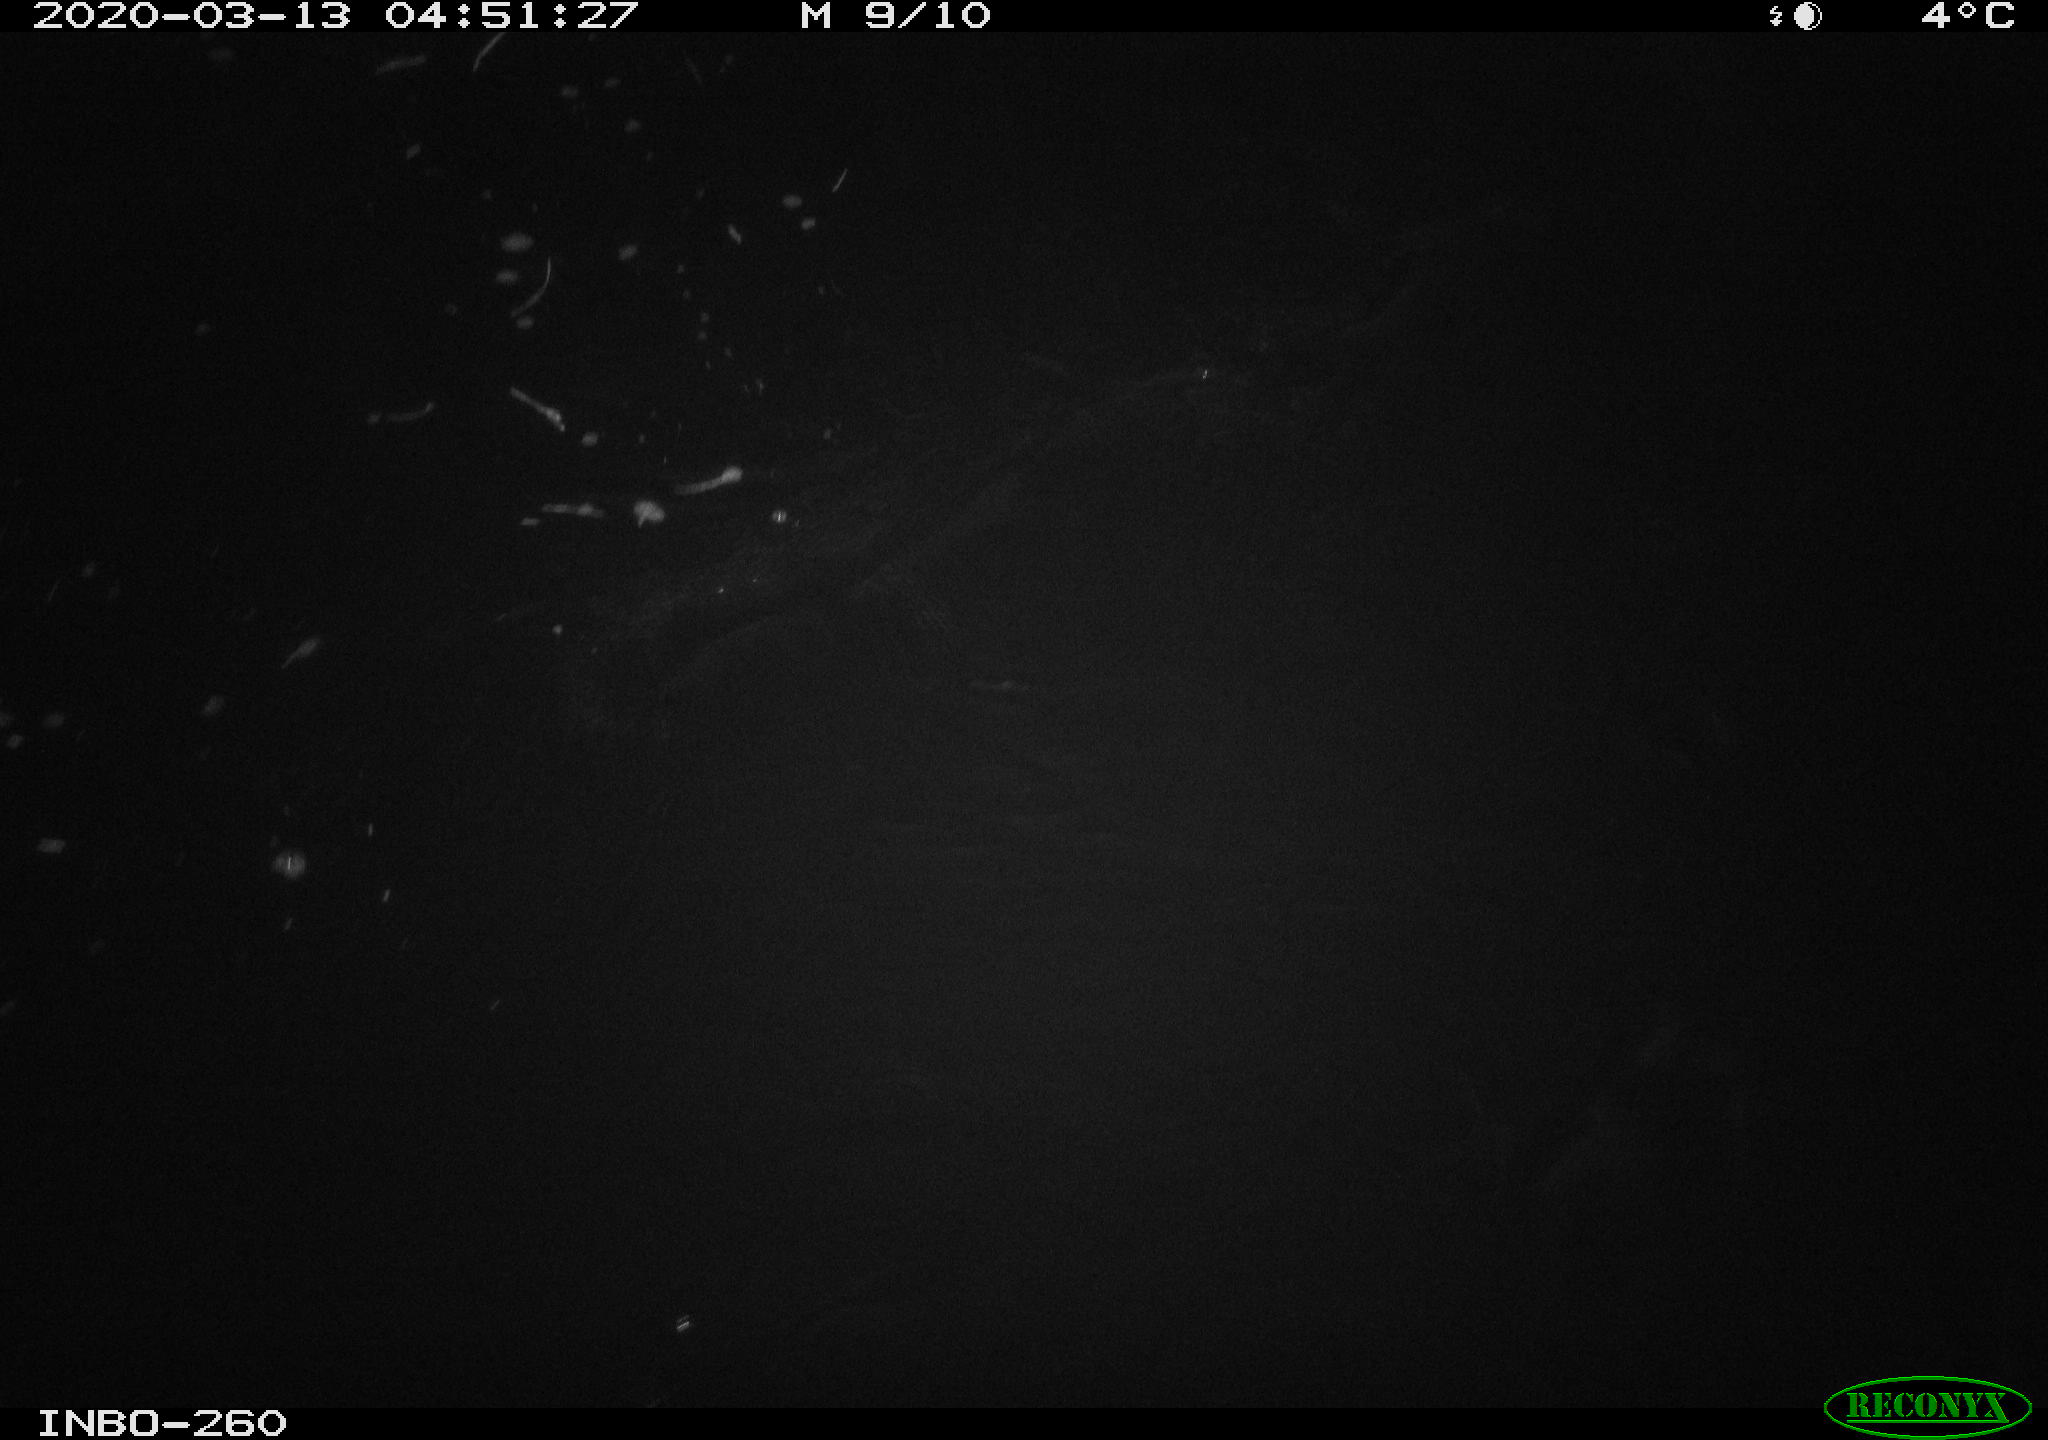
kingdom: Animalia
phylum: Chordata
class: Aves
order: Anseriformes
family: Anatidae
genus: Anas
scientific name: Anas platyrhynchos
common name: Mallard
